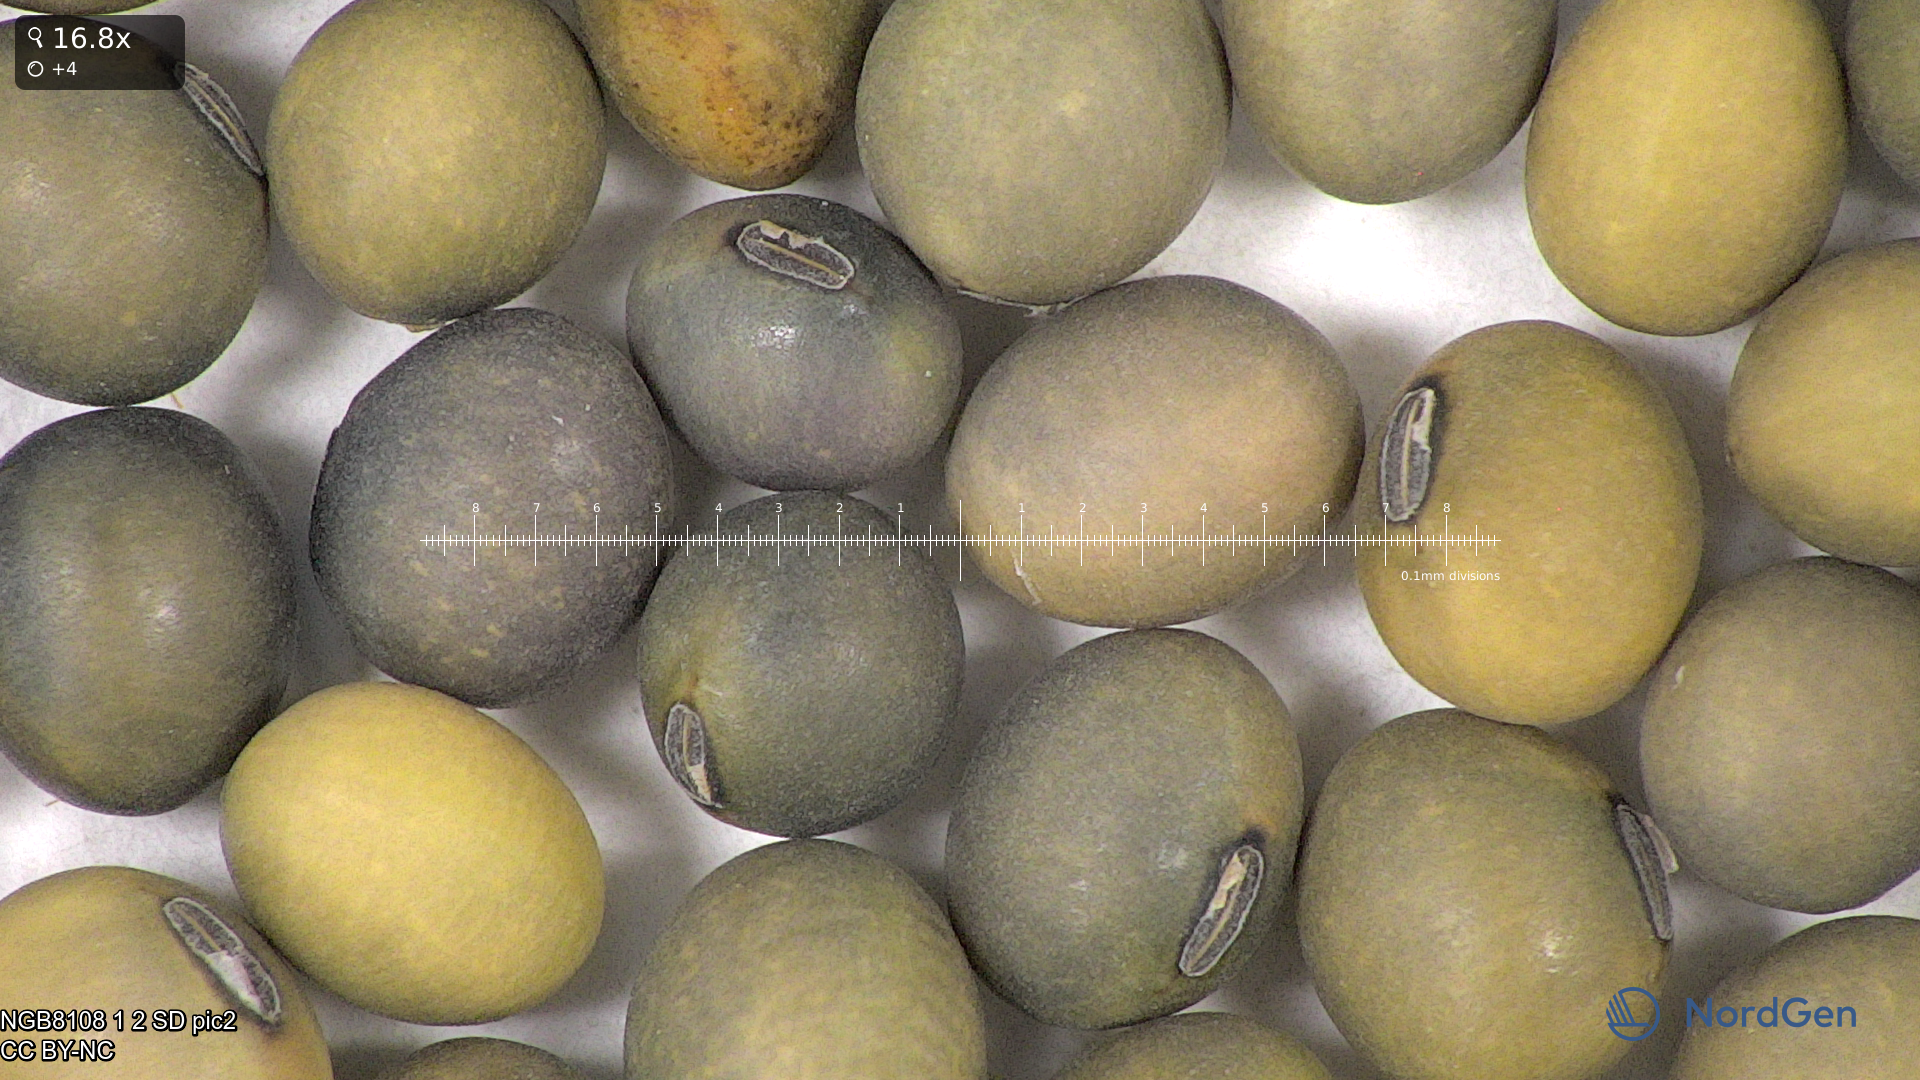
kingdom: Plantae
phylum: Tracheophyta
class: Magnoliopsida
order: Fabales
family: Fabaceae
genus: Glycine
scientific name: Glycine max
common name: Soya-bean
